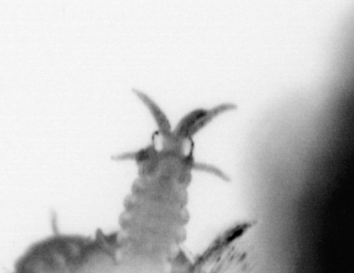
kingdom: Animalia
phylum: Annelida
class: Polychaeta
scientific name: Polychaeta
